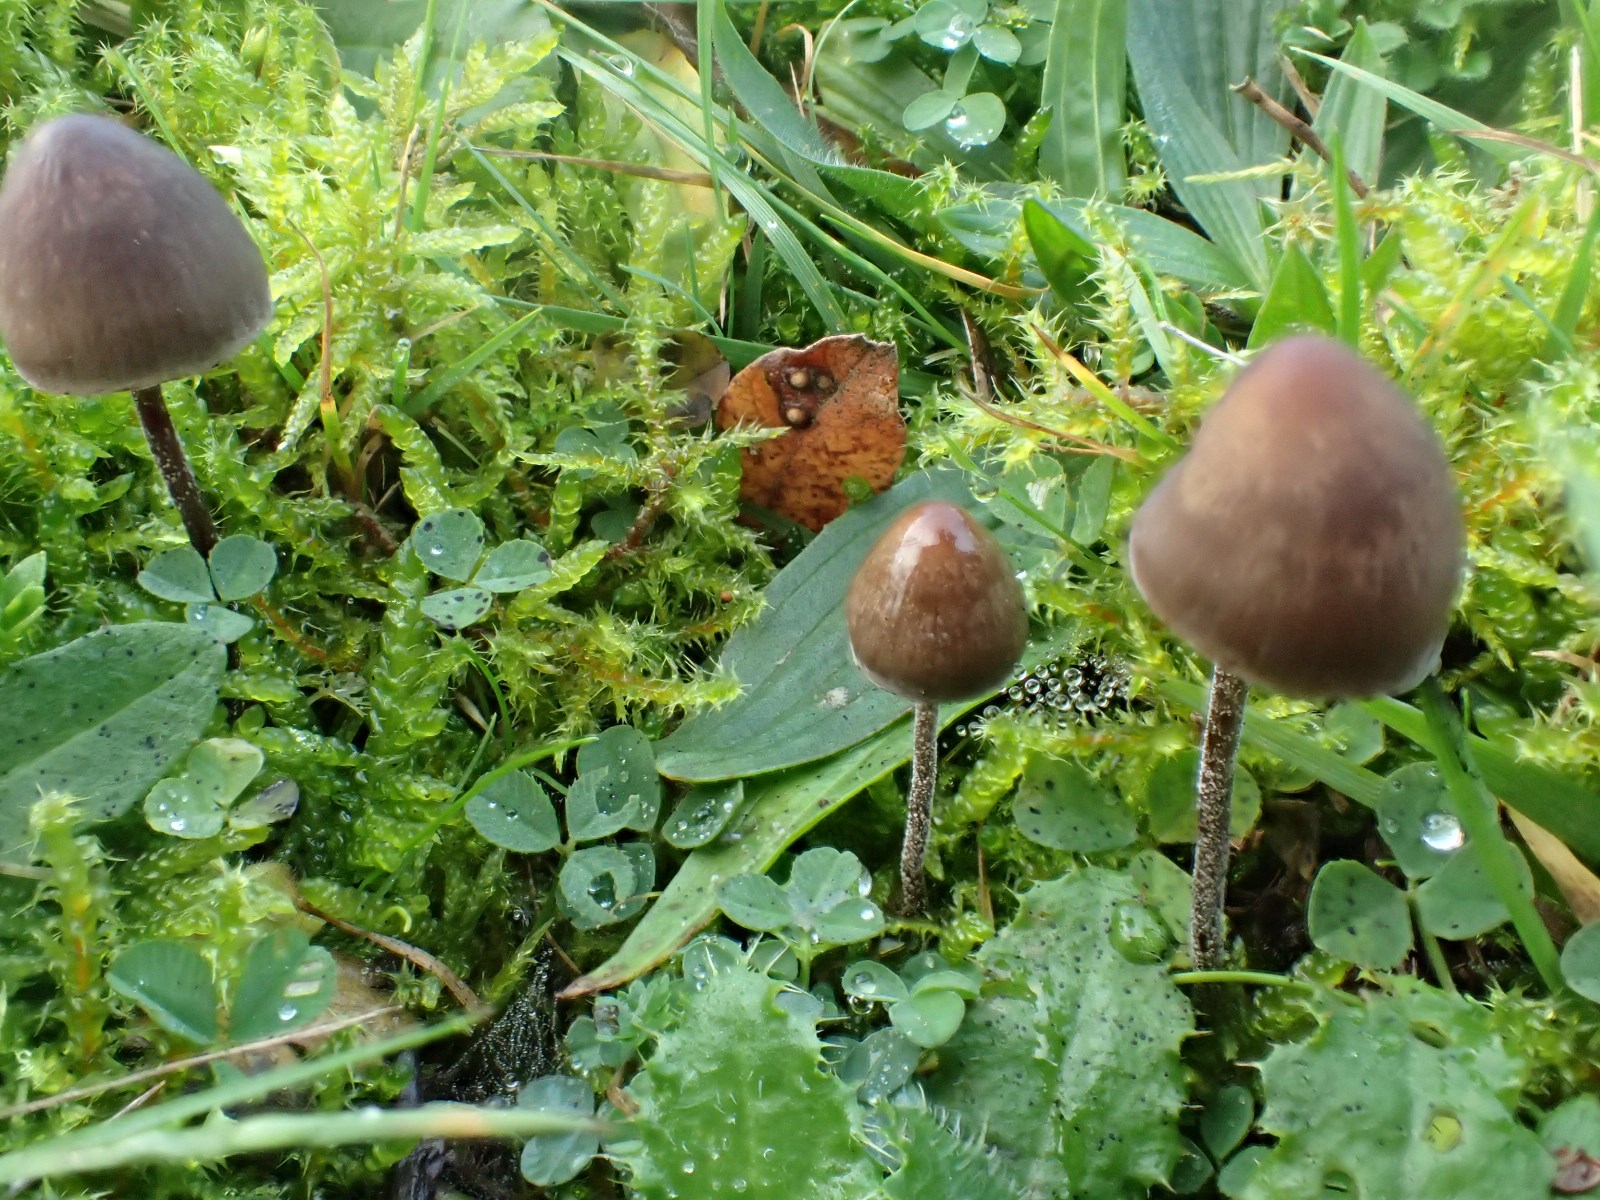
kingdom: Fungi
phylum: Basidiomycota
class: Agaricomycetes
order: Agaricales
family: Bolbitiaceae
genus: Panaeolus
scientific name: Panaeolus
